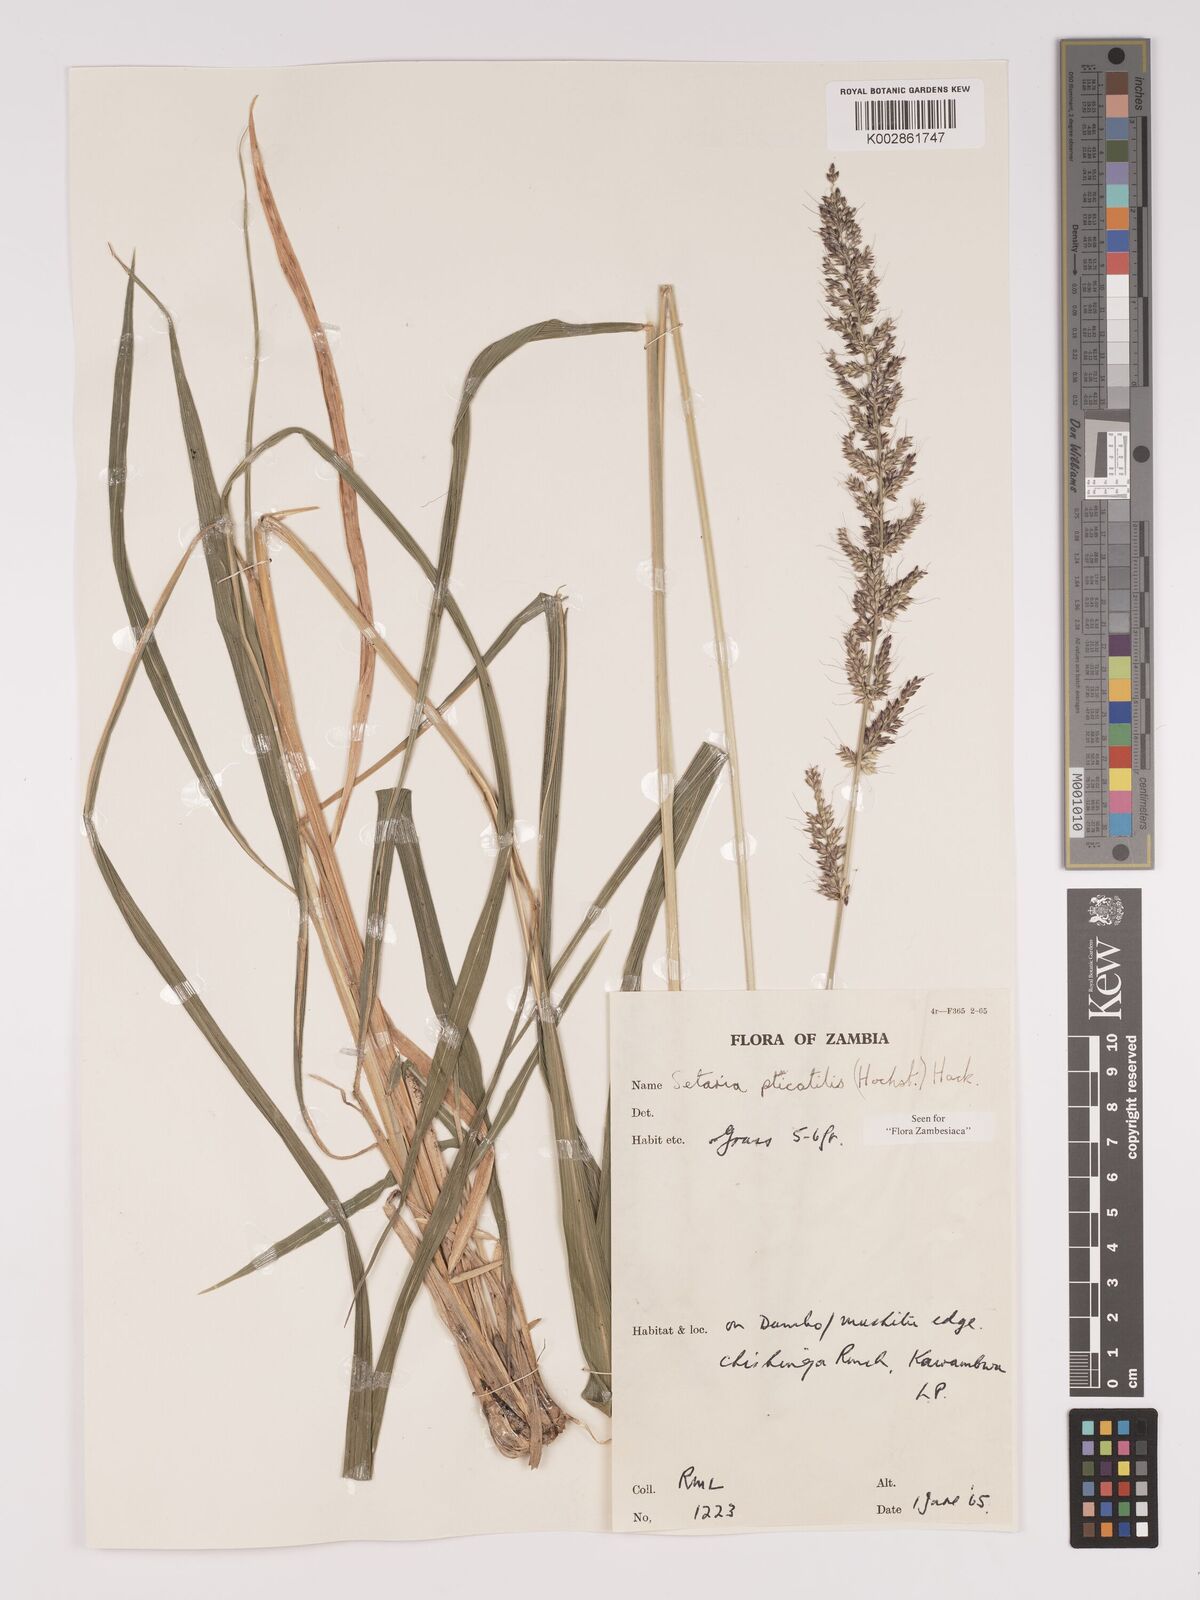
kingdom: Plantae
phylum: Tracheophyta
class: Liliopsida
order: Poales
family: Poaceae
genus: Setaria
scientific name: Setaria megaphylla
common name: Bigleaf bristlegrass
